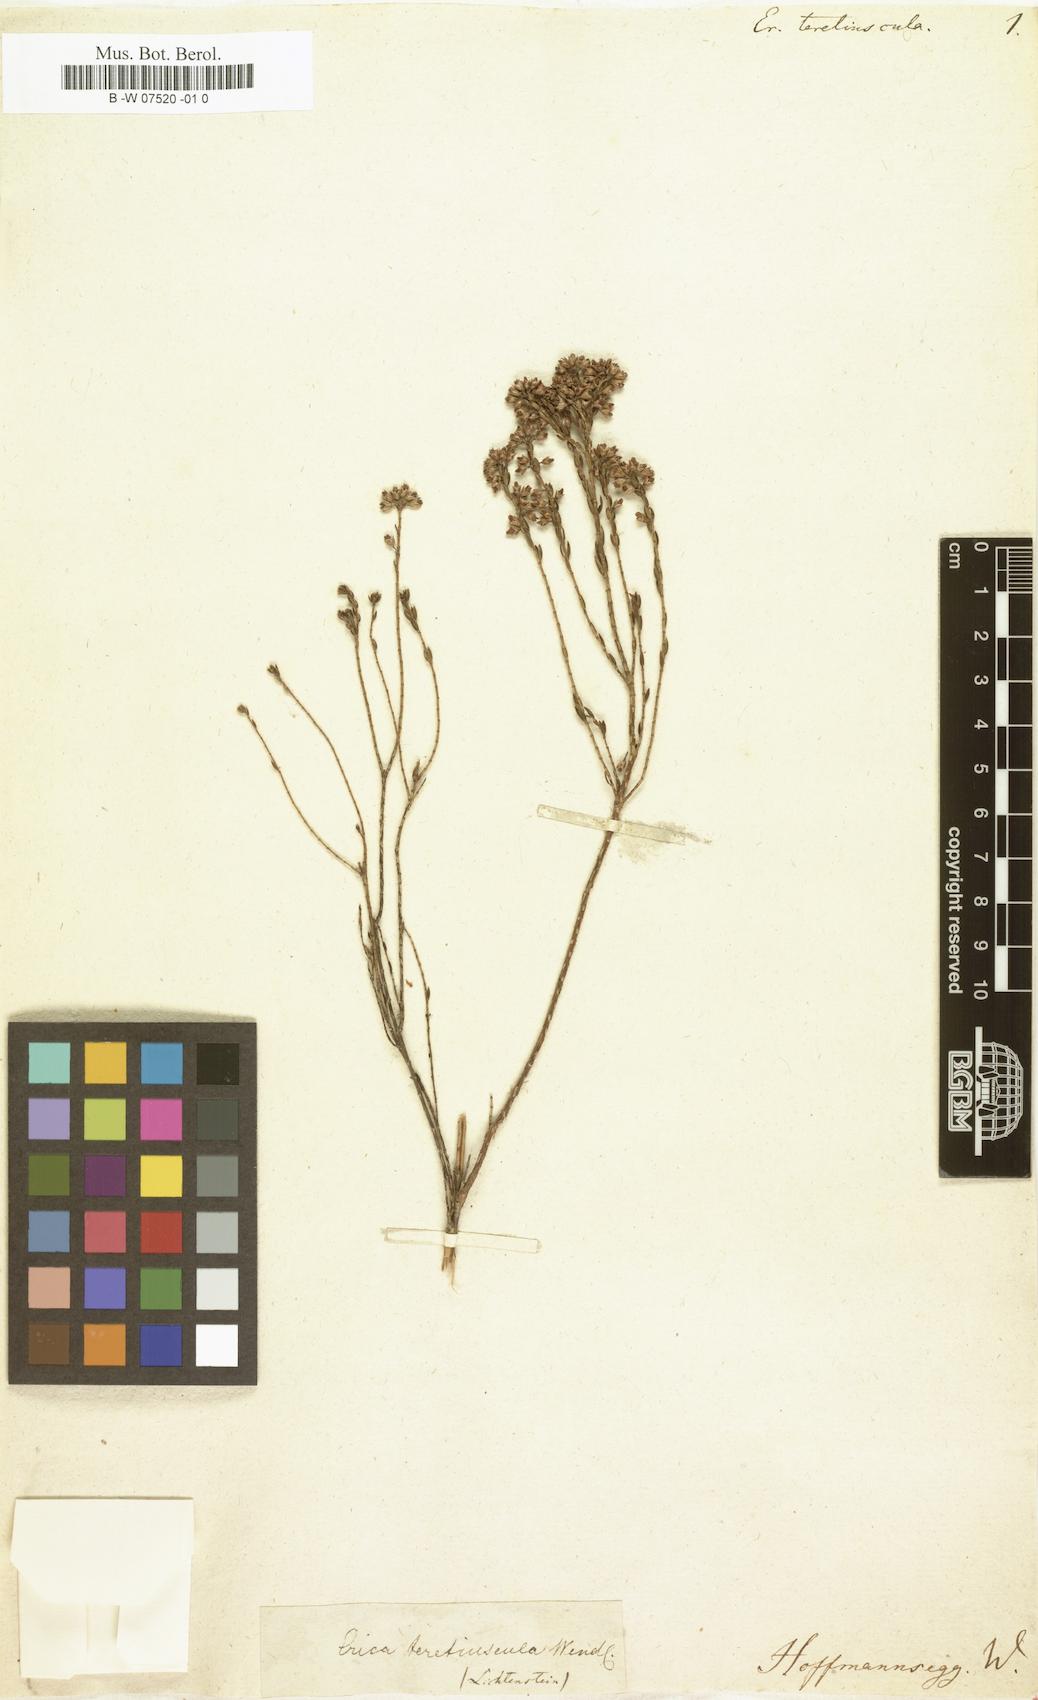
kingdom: Plantae
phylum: Tracheophyta
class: Magnoliopsida
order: Ericales
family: Ericaceae
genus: Erica
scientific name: Erica articularis
